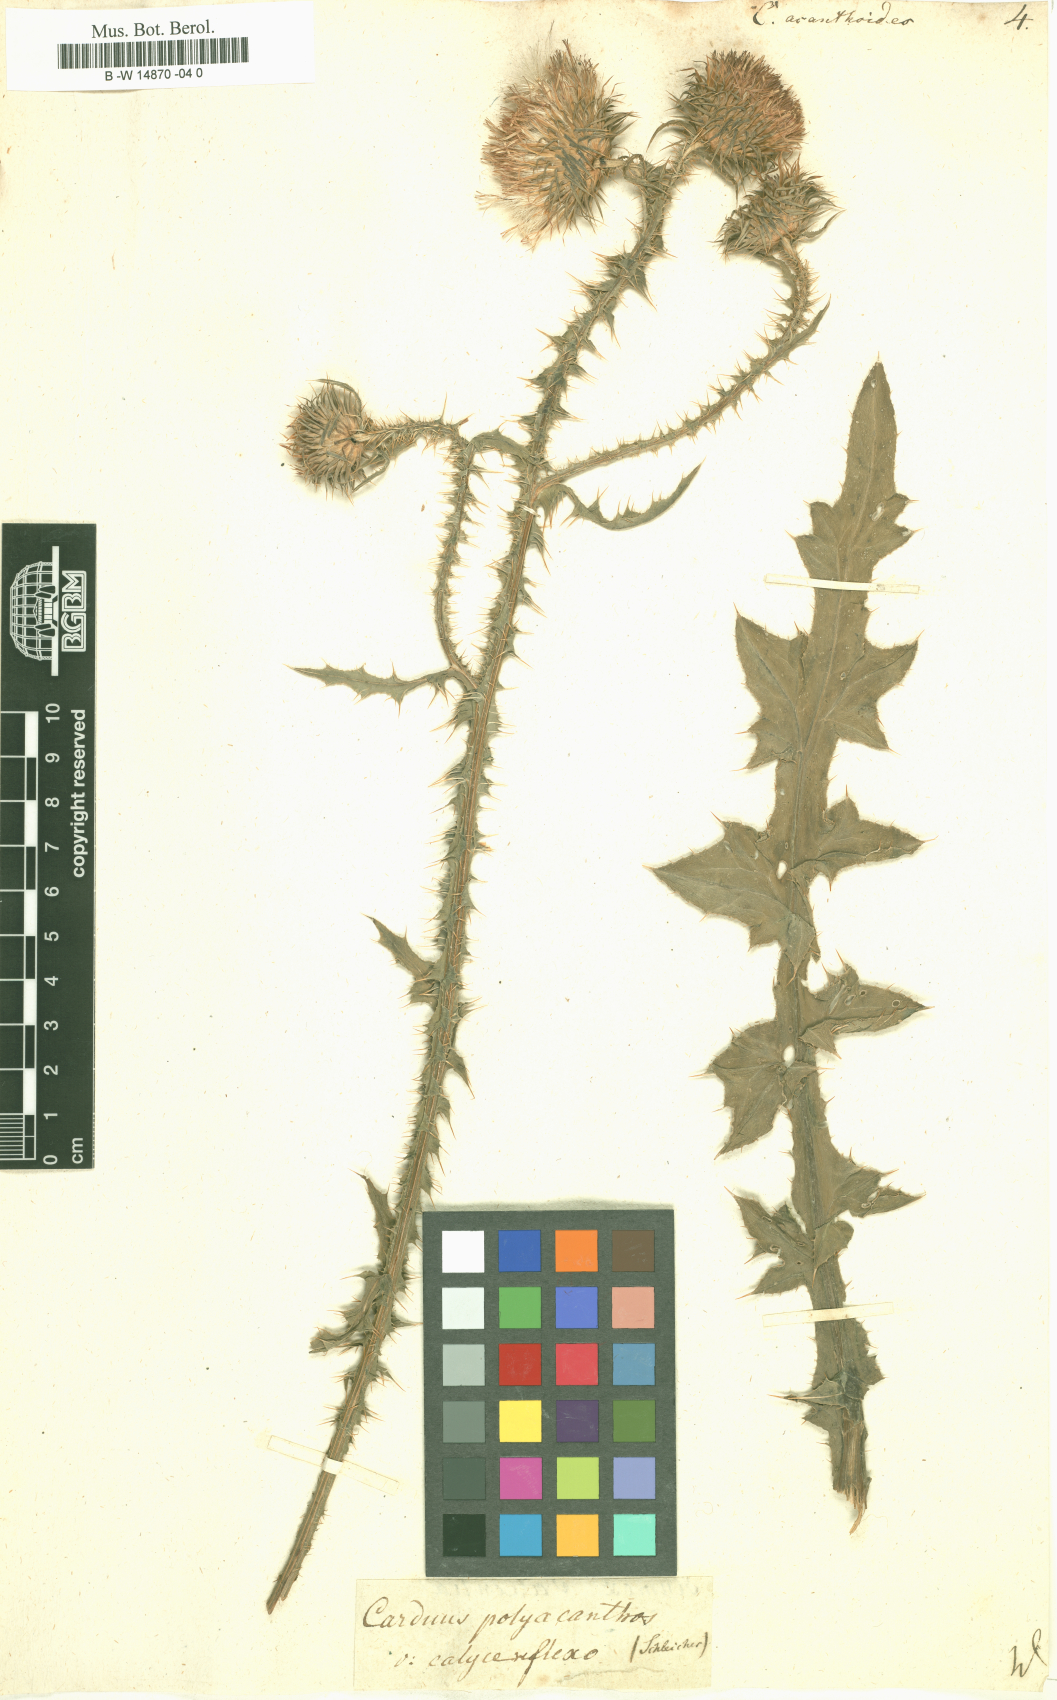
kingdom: Plantae
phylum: Tracheophyta
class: Magnoliopsida
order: Asterales
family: Asteraceae
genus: Carduus
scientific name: Carduus acanthoides
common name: Plumeless thistle
